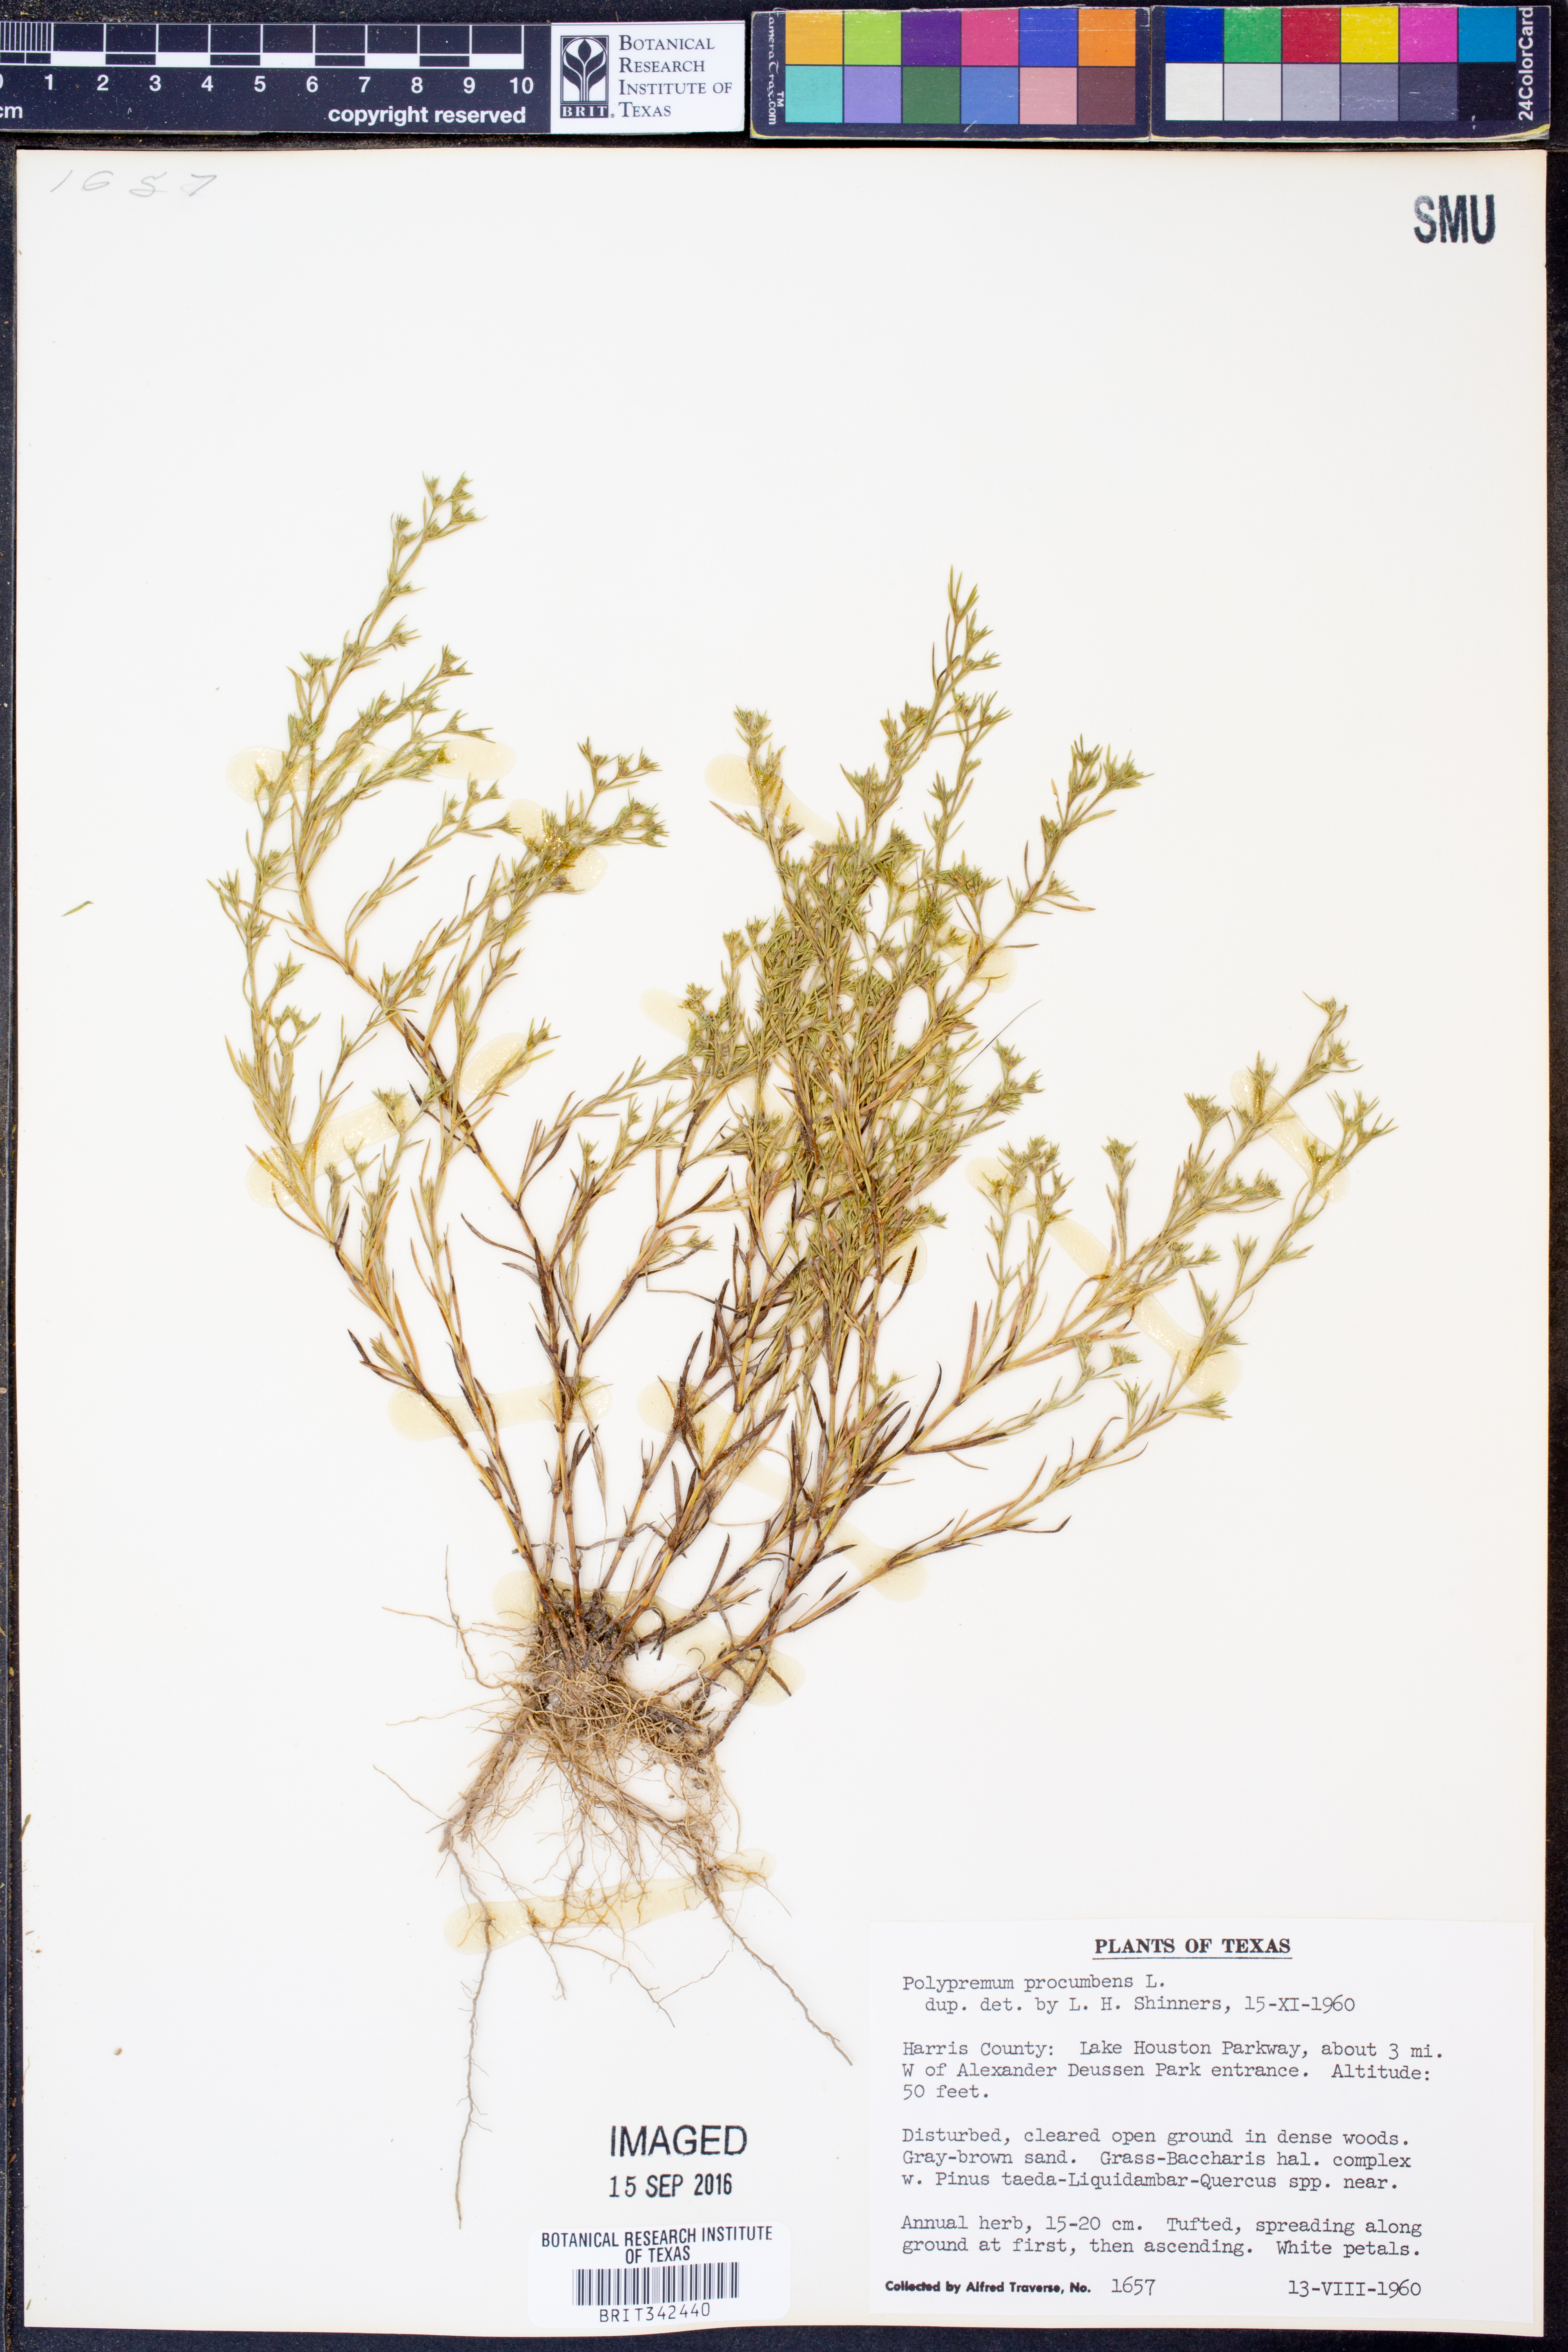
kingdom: Plantae
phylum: Tracheophyta
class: Magnoliopsida
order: Lamiales
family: Tetrachondraceae
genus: Polypremum
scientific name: Polypremum procumbens
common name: Juniper-leaf
